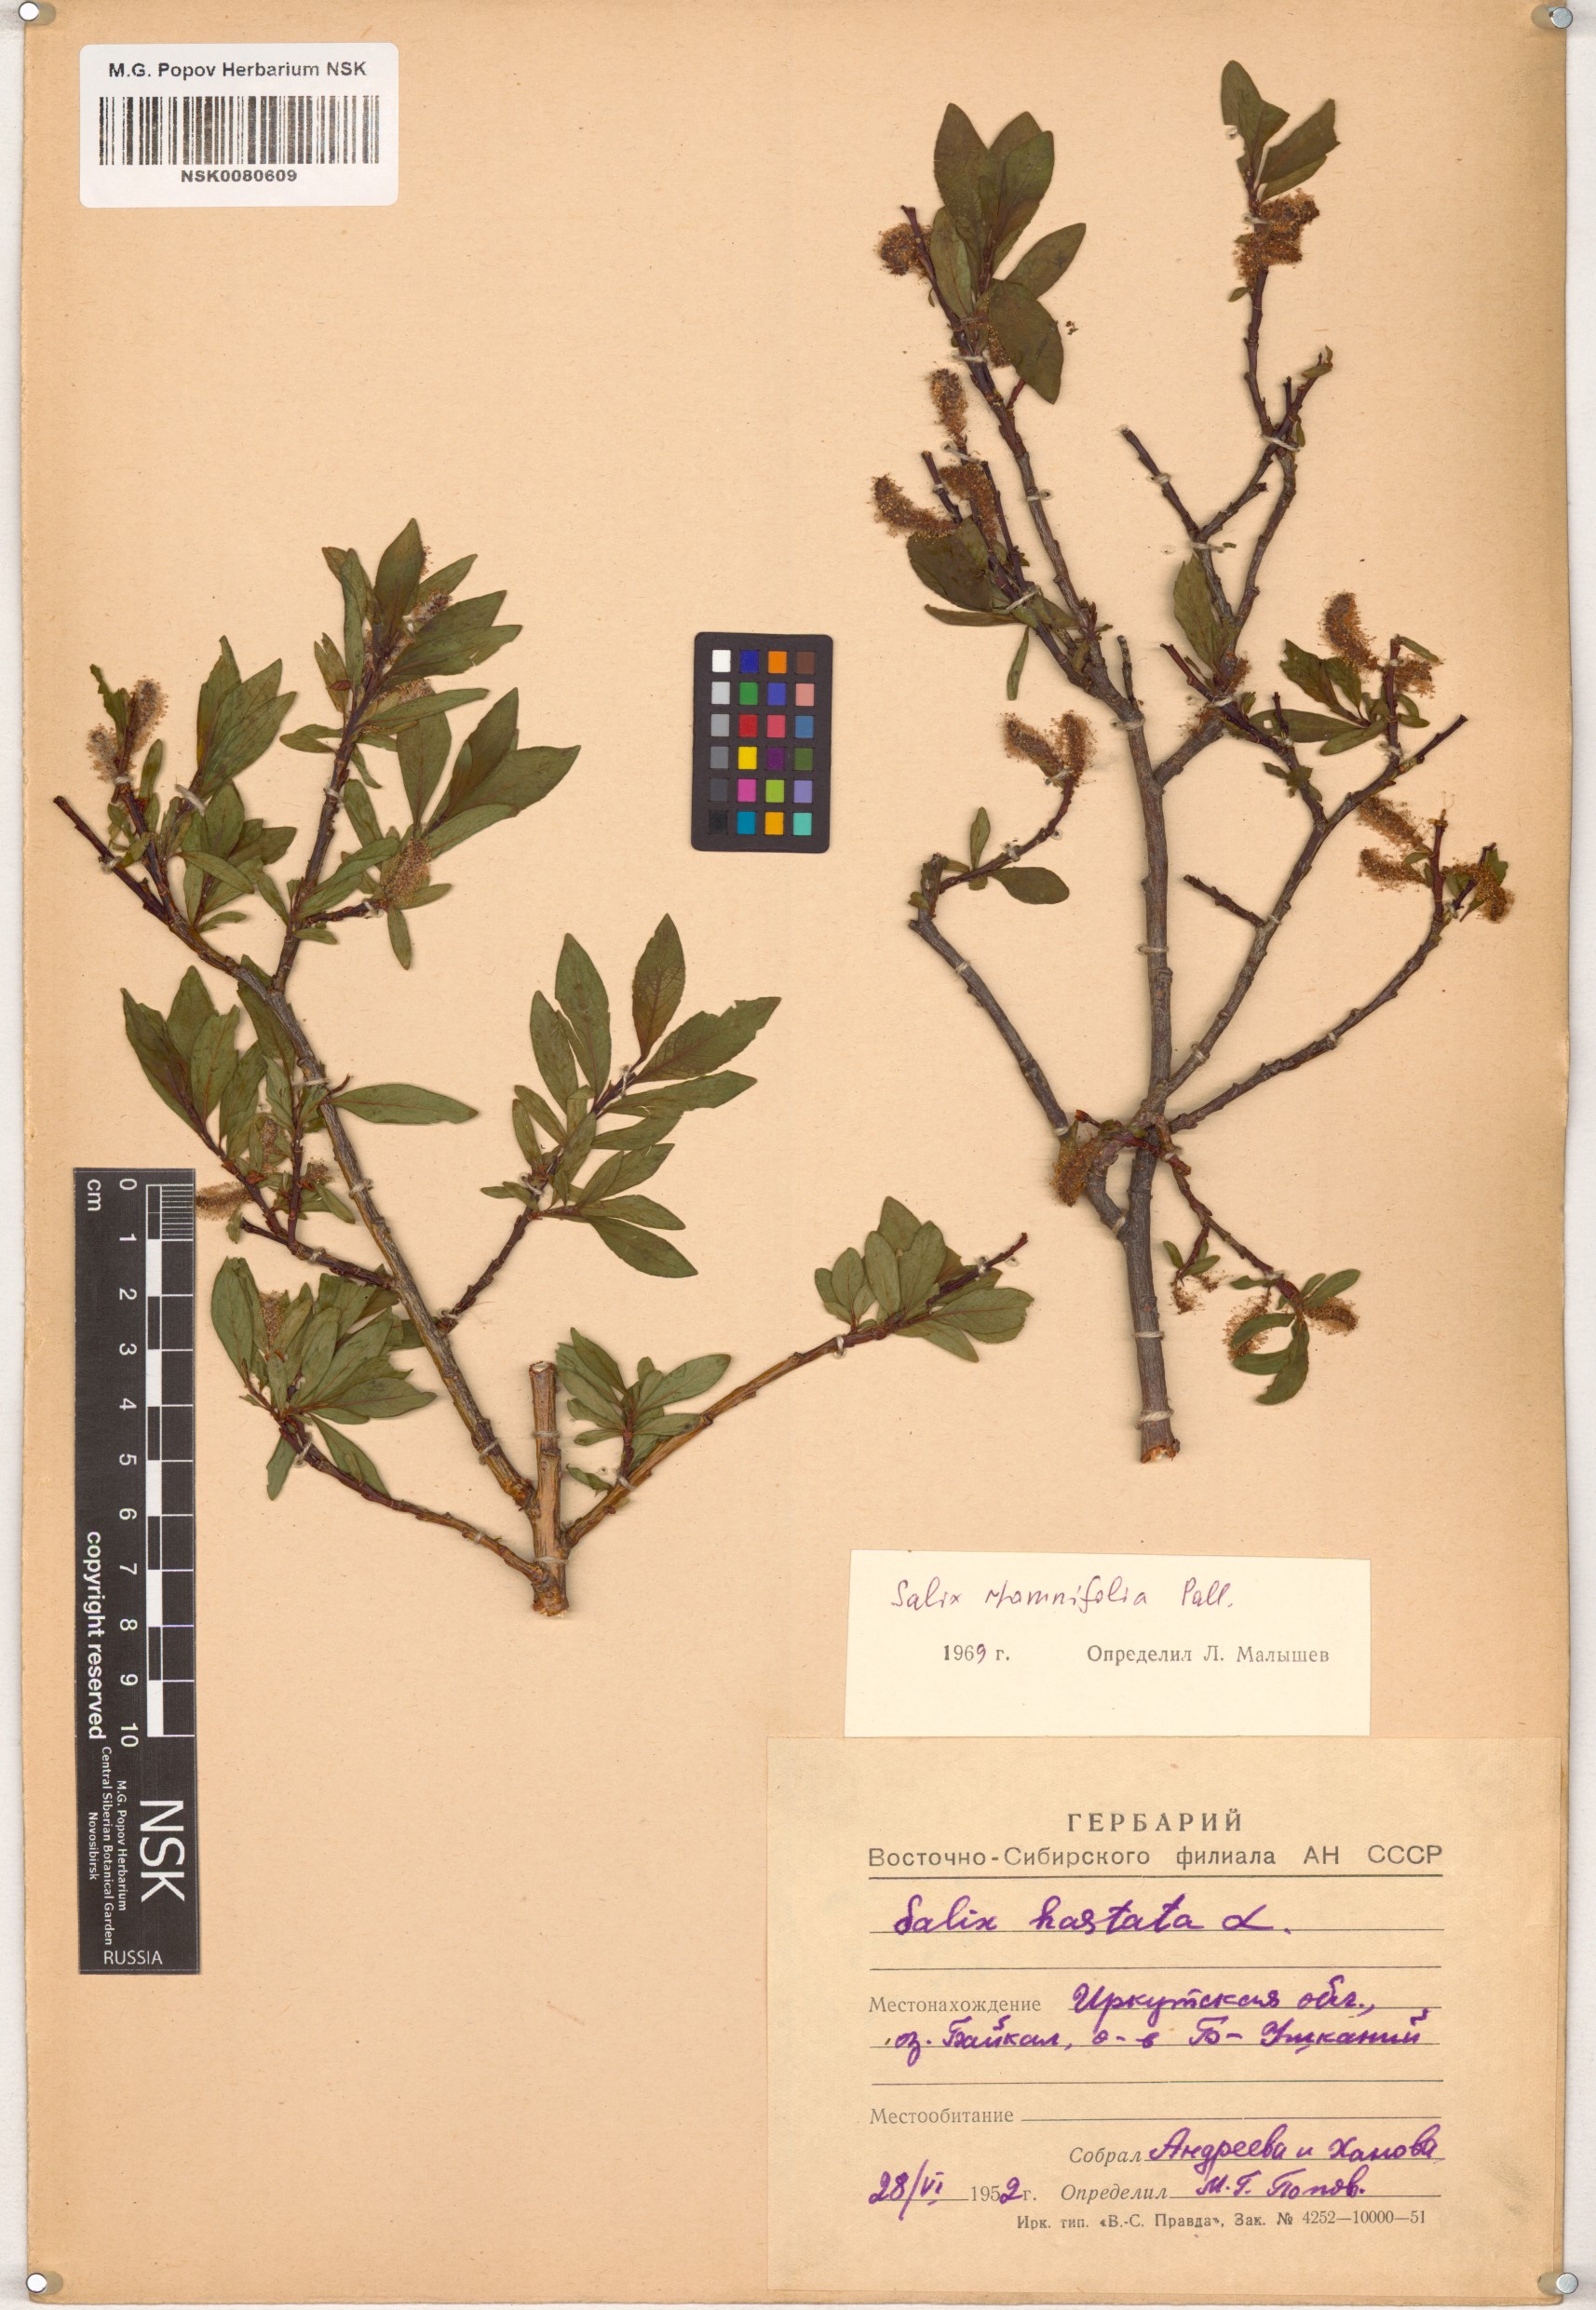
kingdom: Plantae
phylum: Tracheophyta
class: Magnoliopsida
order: Malpighiales
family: Salicaceae
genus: Salix
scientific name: Salix rhamnifolia
